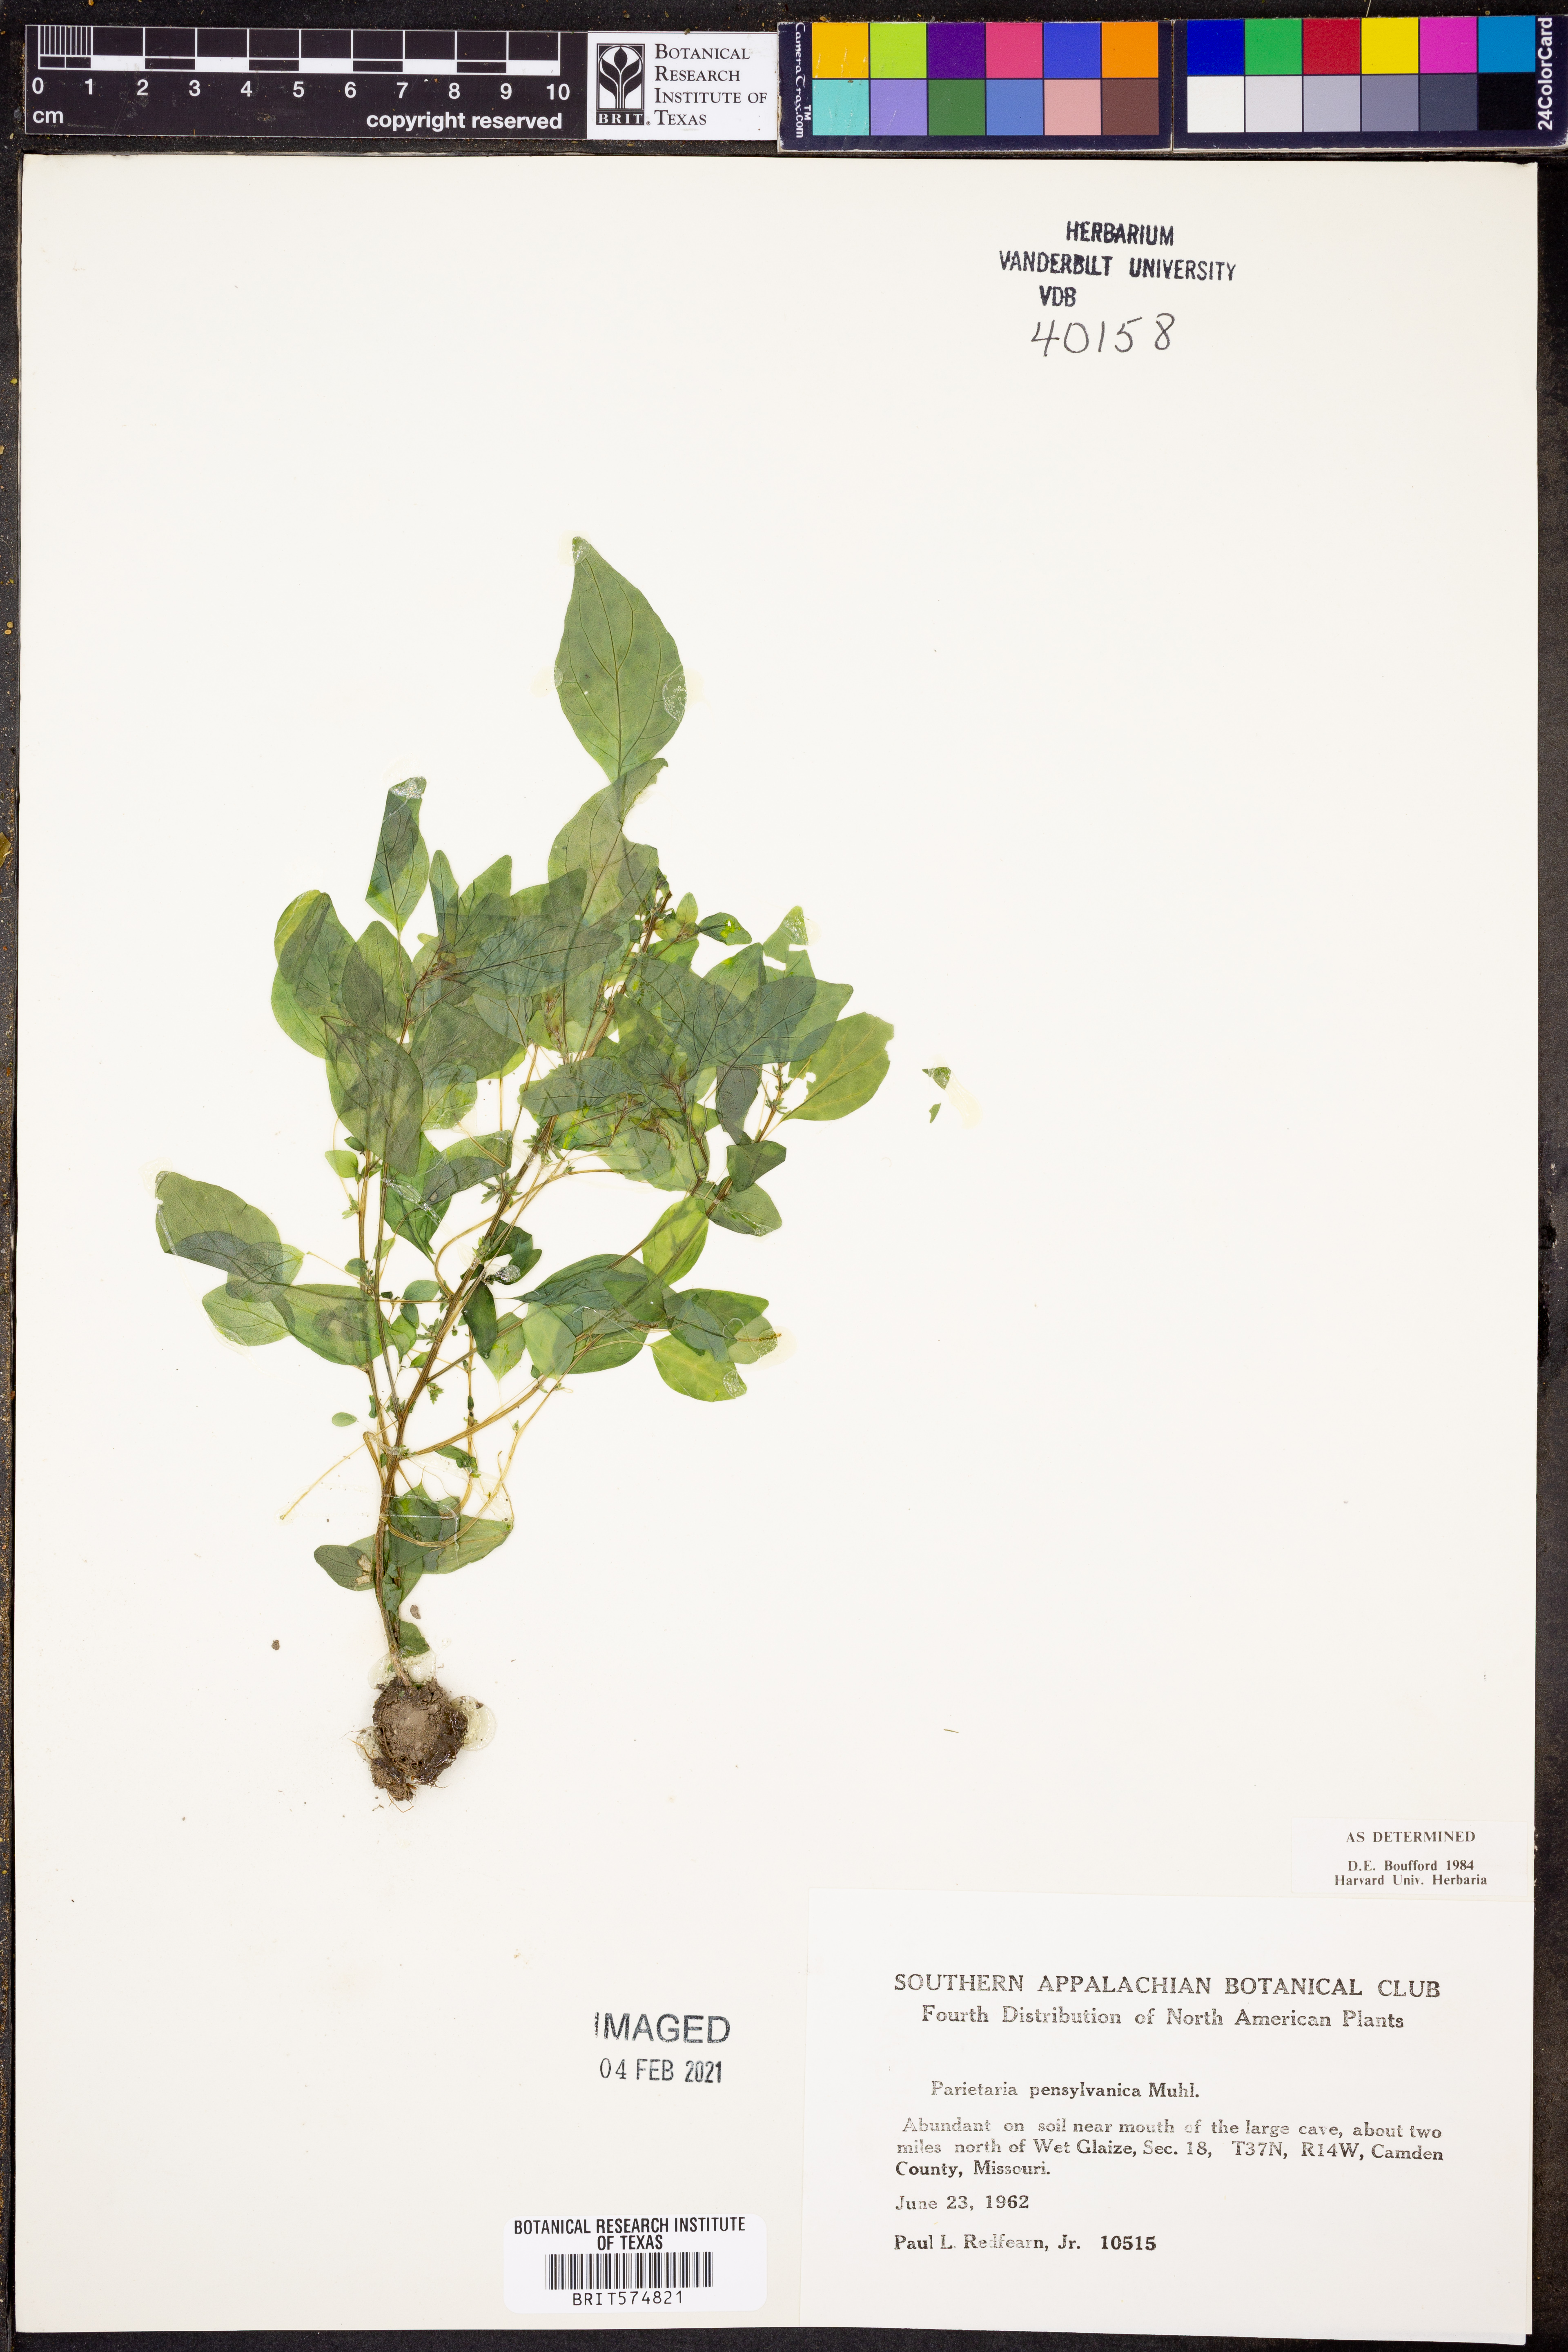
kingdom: Plantae
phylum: Tracheophyta
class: Magnoliopsida
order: Rosales
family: Urticaceae
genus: Parietaria
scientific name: Parietaria pensylvanica
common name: Pennsylvania pellitory
